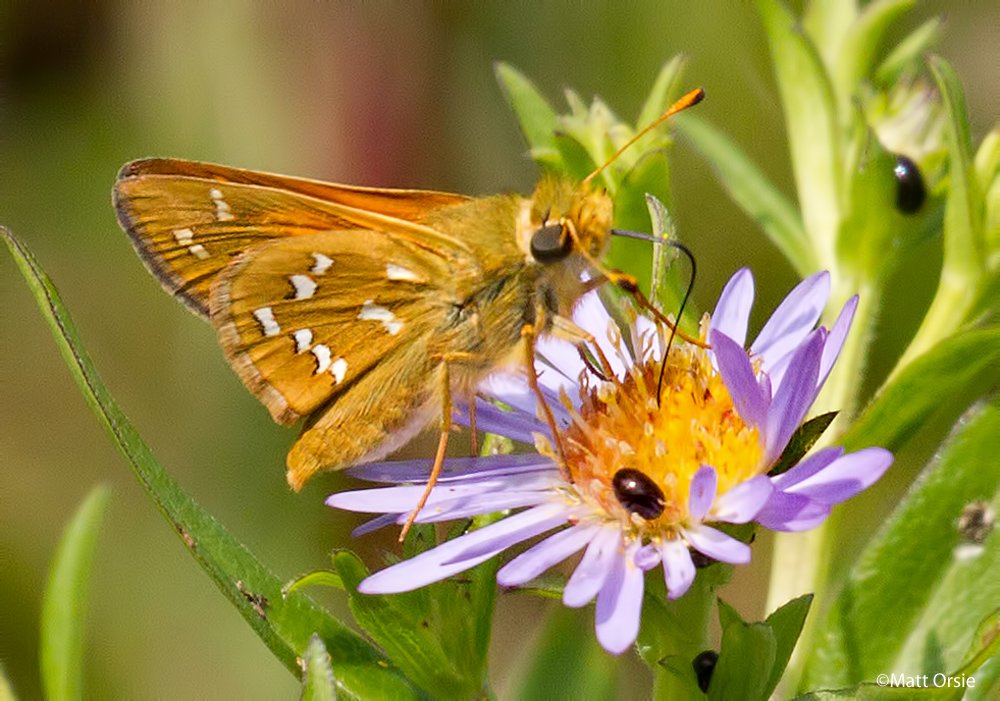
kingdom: Animalia
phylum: Arthropoda
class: Insecta
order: Lepidoptera
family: Hesperiidae
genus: Hesperia
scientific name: Hesperia comma
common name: Common Branded Skipper
